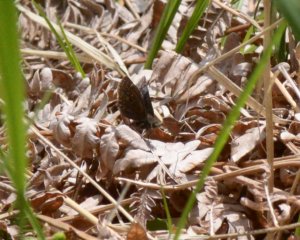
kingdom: Animalia
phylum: Arthropoda
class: Insecta
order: Lepidoptera
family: Hesperiidae
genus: Erynnis
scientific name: Erynnis icelus
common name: Dreamy Duskywing
